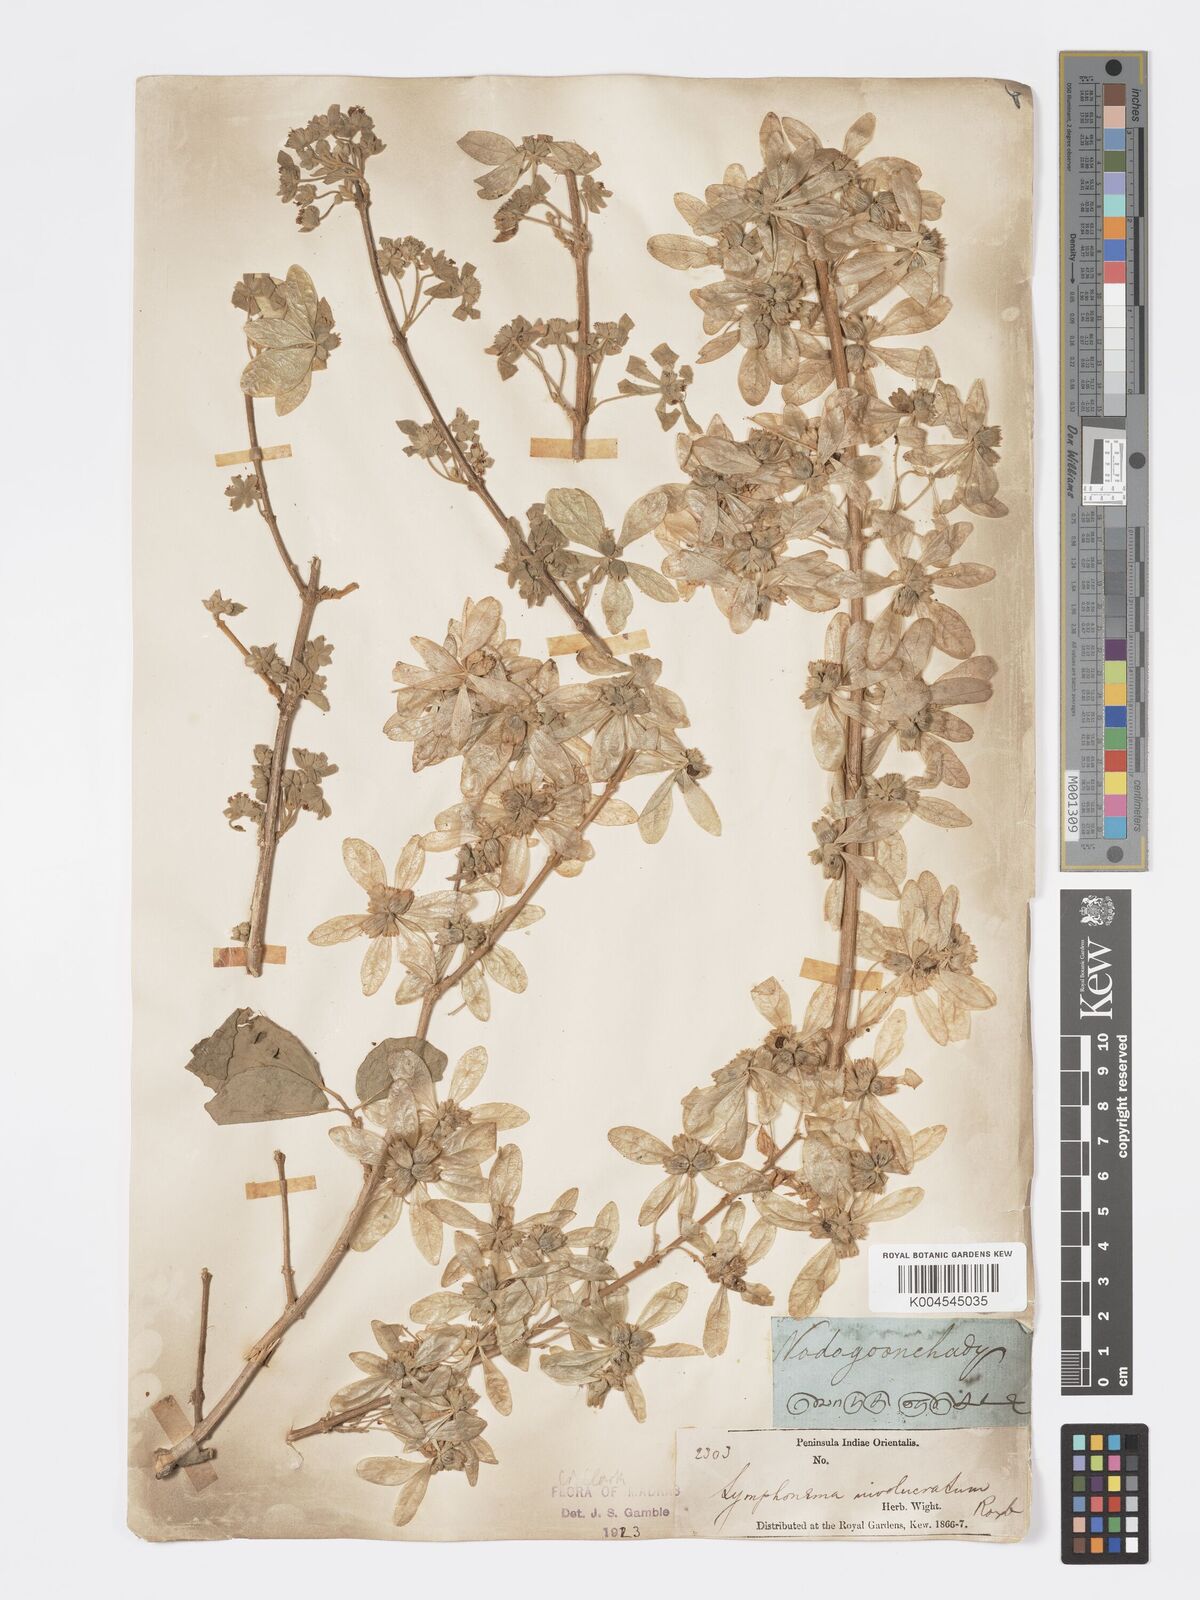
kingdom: Plantae
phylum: Tracheophyta
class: Magnoliopsida
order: Lamiales
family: Lamiaceae
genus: Symphorema
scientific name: Symphorema involucratum
